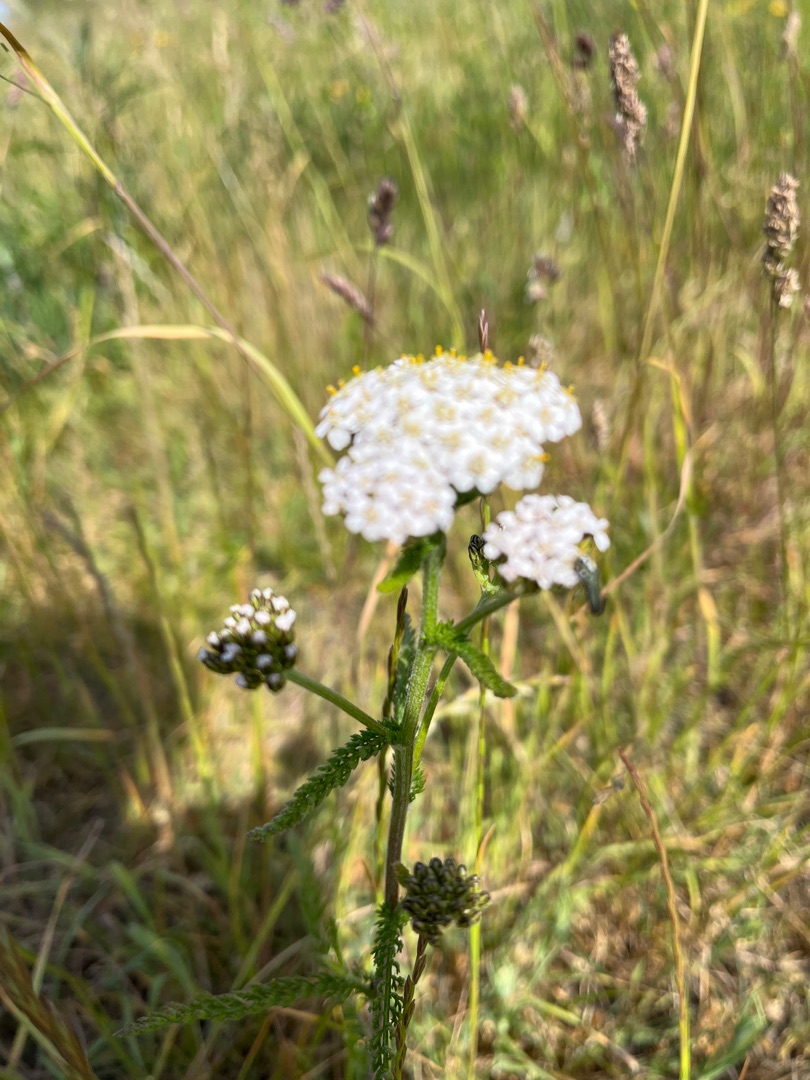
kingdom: Plantae
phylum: Tracheophyta
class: Magnoliopsida
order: Asterales
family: Asteraceae
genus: Achillea
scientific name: Achillea millefolium
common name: Almindelig røllike
